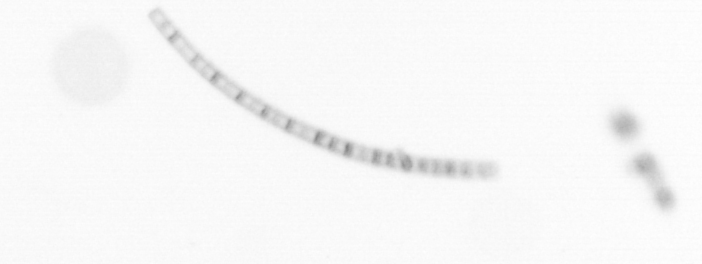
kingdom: Chromista
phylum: Ochrophyta
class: Bacillariophyceae
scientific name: Bacillariophyceae
